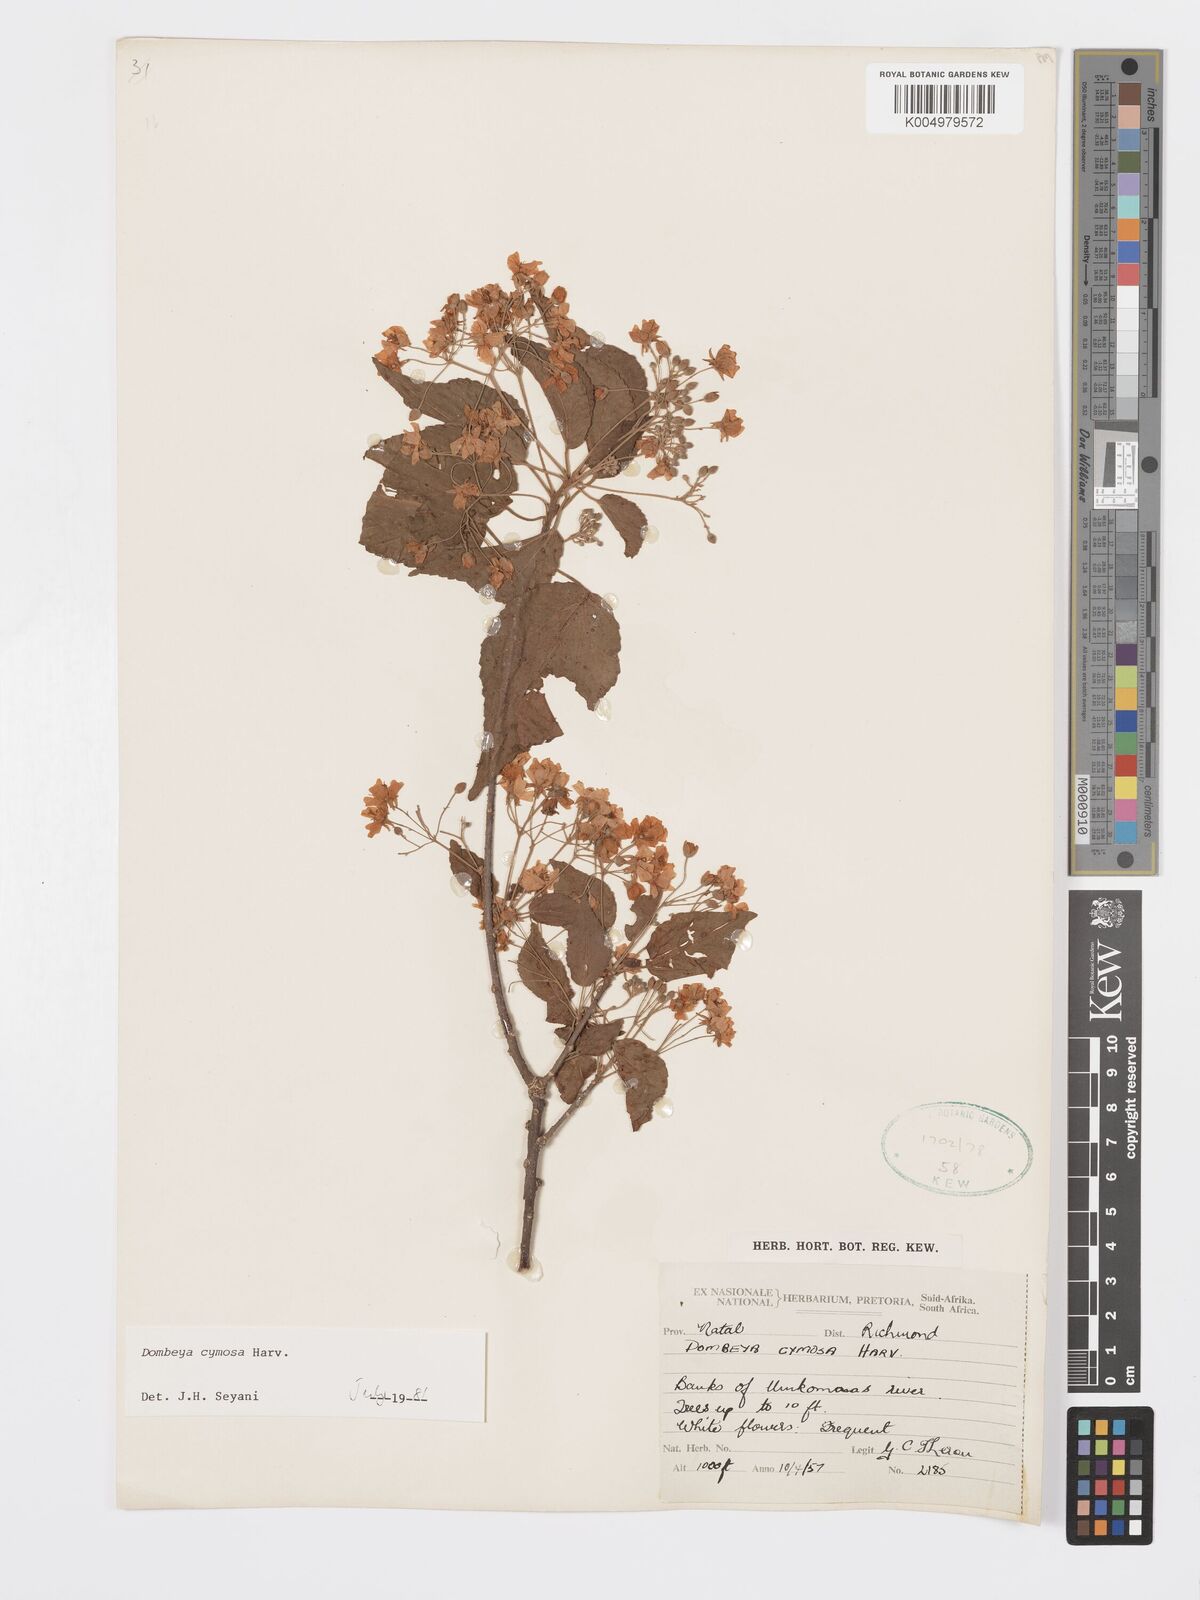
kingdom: Plantae
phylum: Tracheophyta
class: Magnoliopsida
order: Malvales
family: Malvaceae
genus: Dombeya
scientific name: Dombeya cymosa
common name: Hairless dombeya
